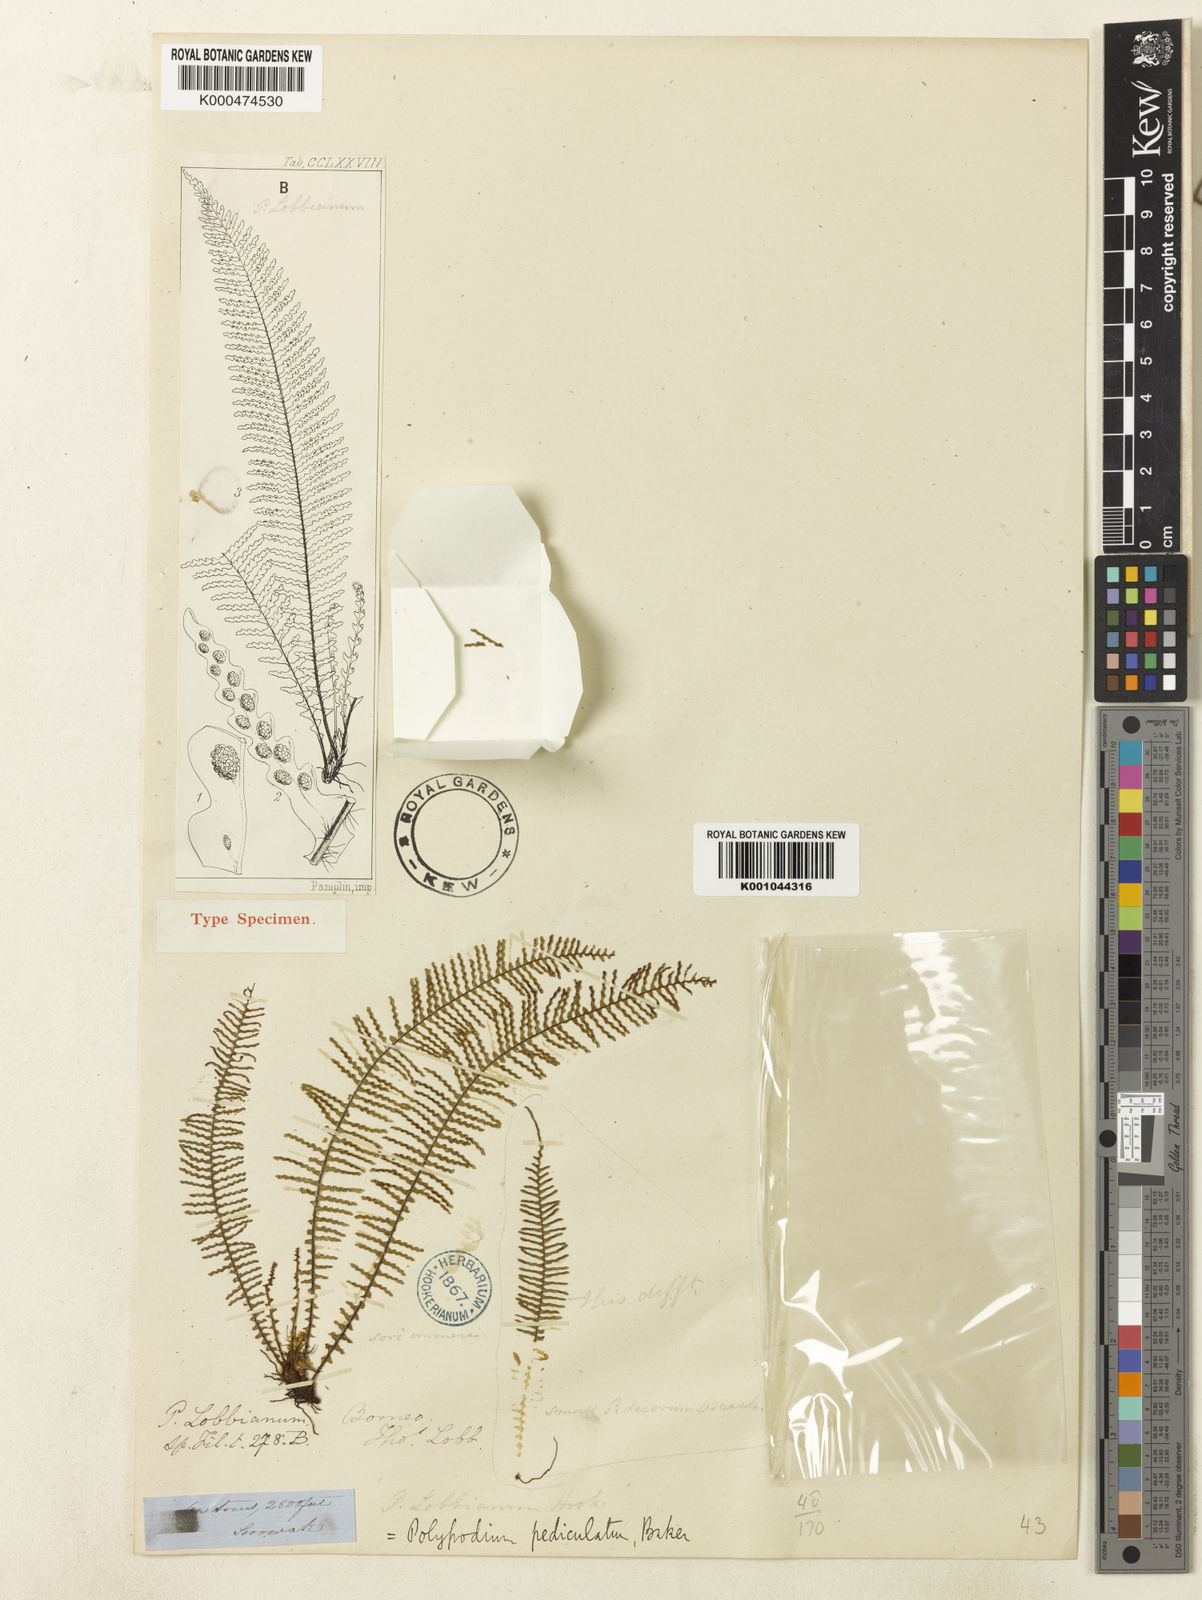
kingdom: Plantae
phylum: Tracheophyta
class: Polypodiopsida
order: Polypodiales
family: Polypodiaceae
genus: Ctenopterella
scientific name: Ctenopterella pediculata
